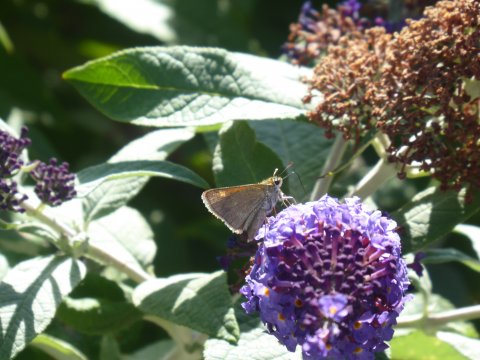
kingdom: Animalia
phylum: Arthropoda
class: Insecta
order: Lepidoptera
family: Hesperiidae
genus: Polites
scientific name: Polites
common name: Crossline Skipper
